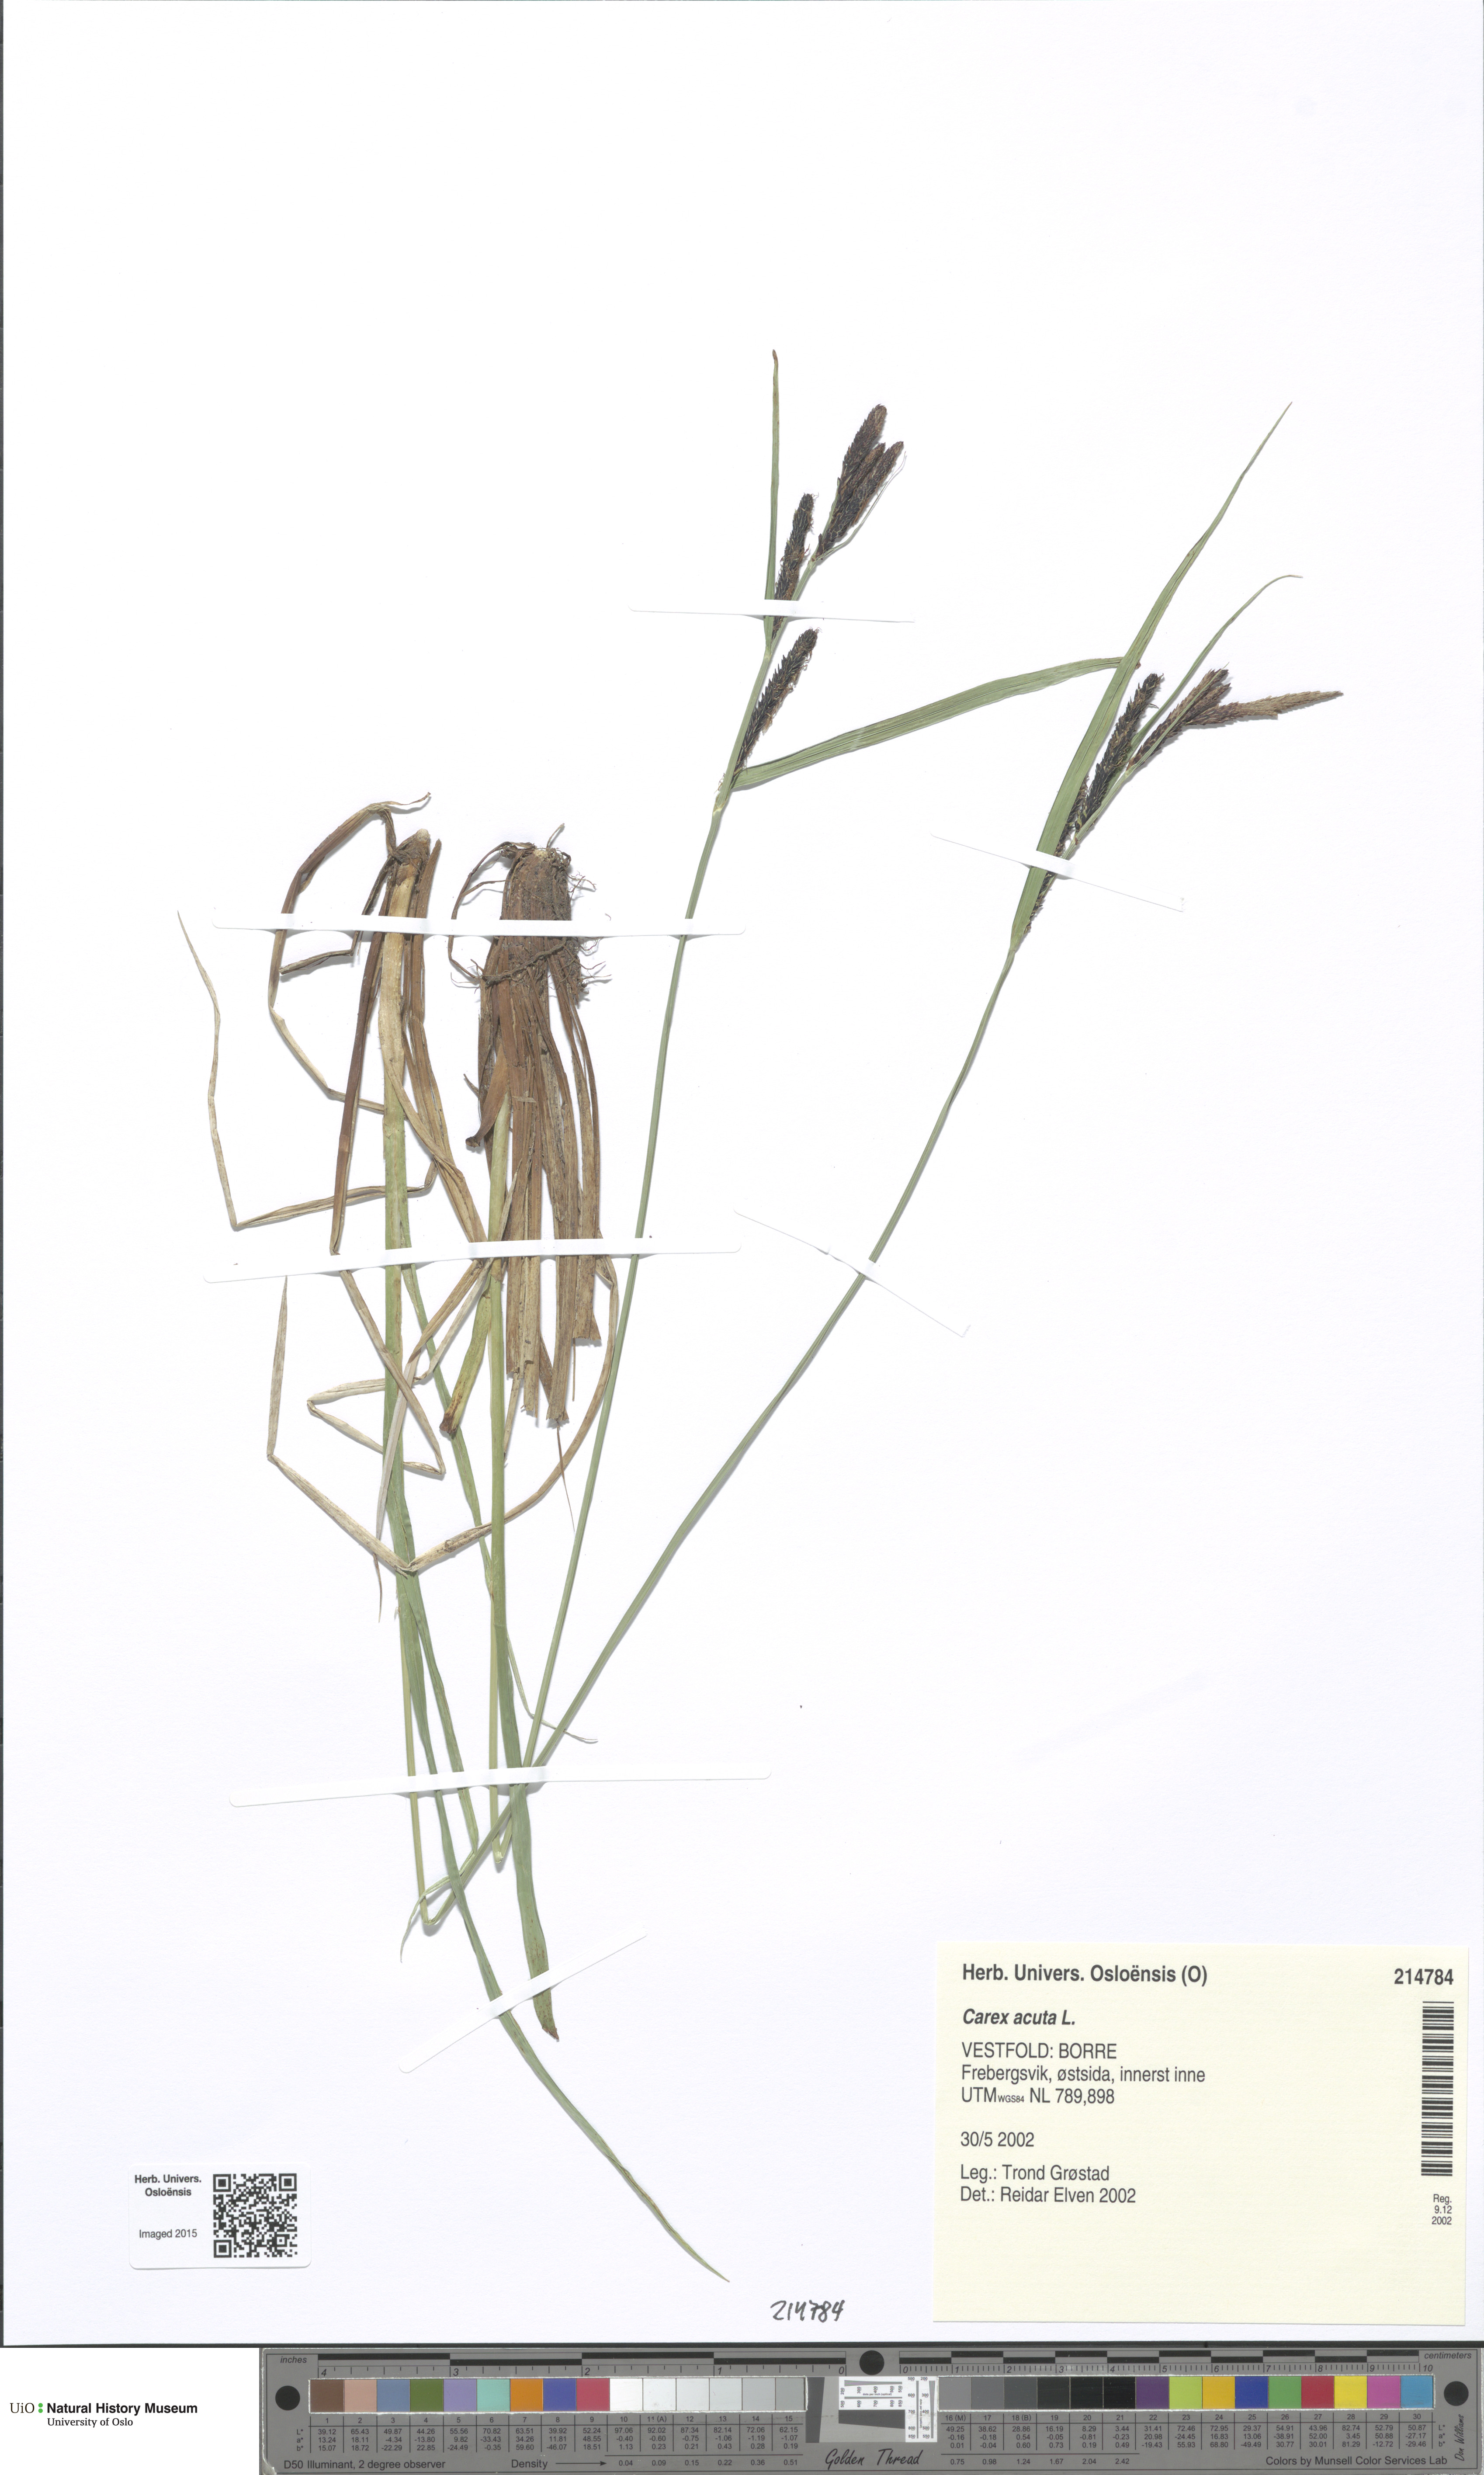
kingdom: Plantae
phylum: Tracheophyta
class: Liliopsida
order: Poales
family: Cyperaceae
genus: Carex
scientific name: Carex acuta
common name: Slender tufted-sedge
